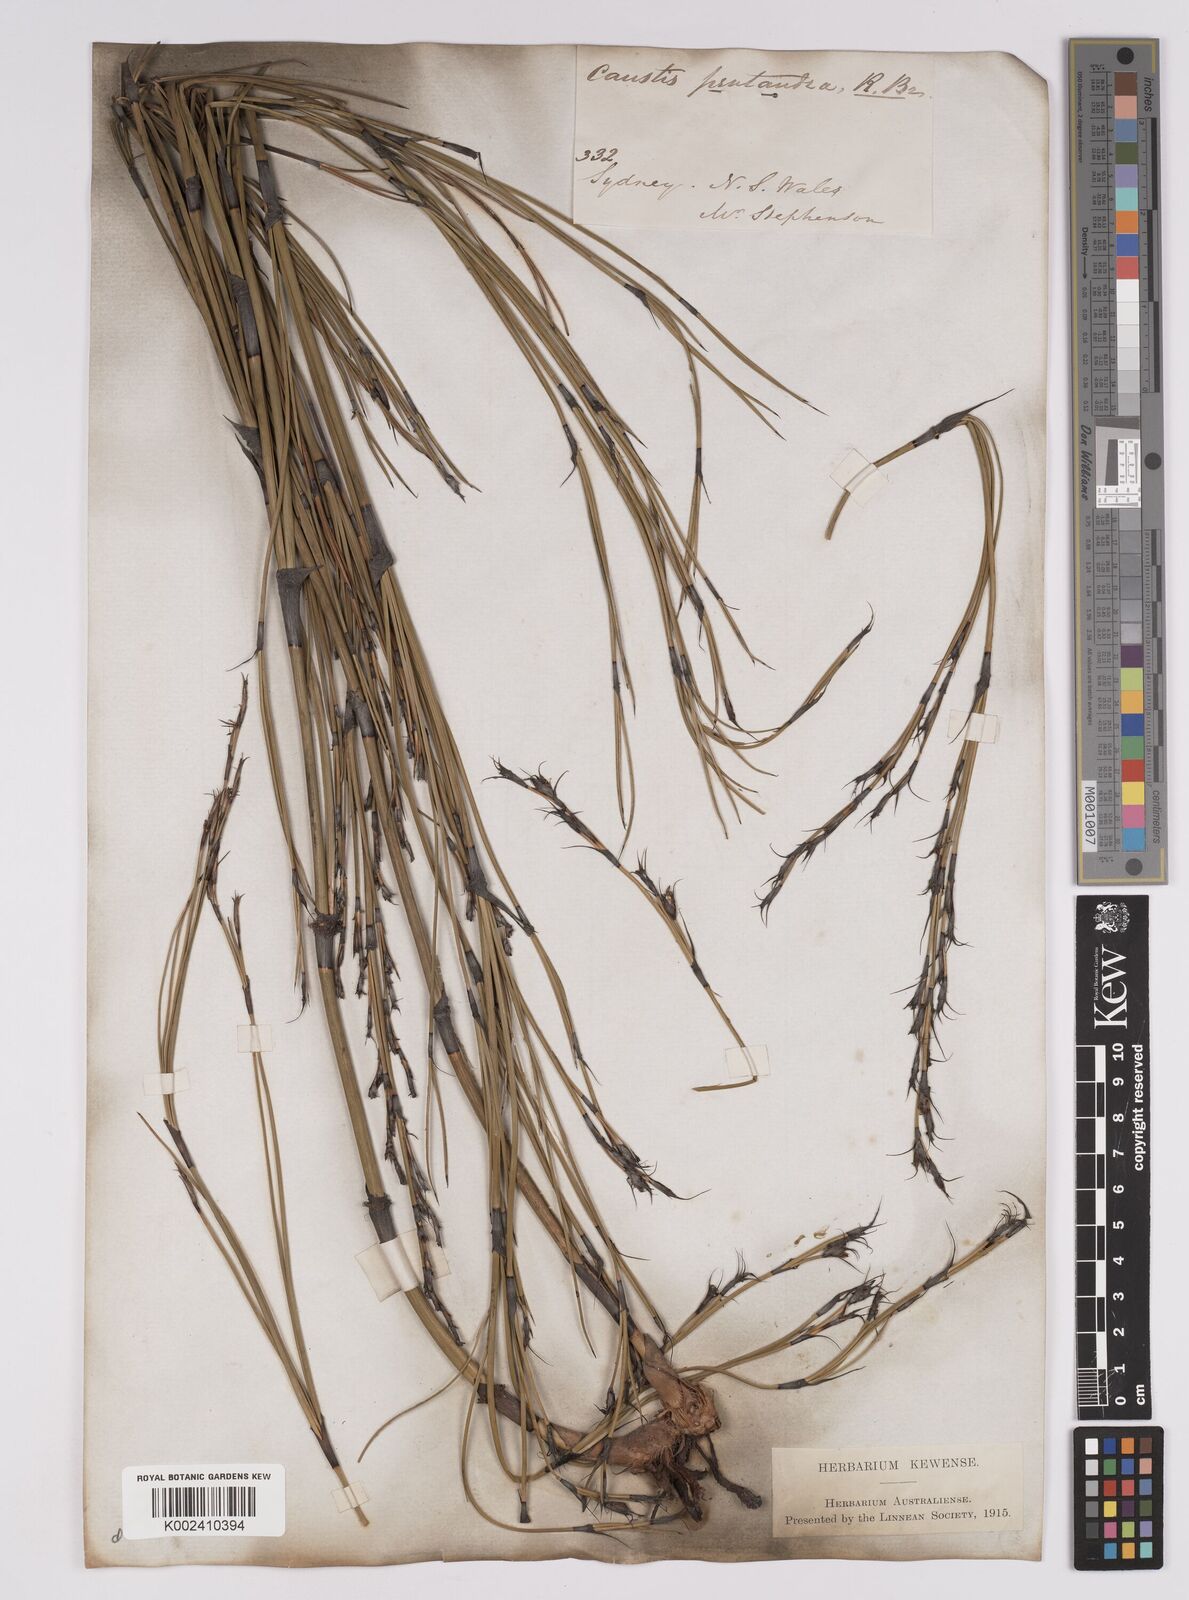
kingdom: Plantae
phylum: Tracheophyta
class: Liliopsida
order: Poales
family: Cyperaceae
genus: Caustis
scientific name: Caustis pentandra
